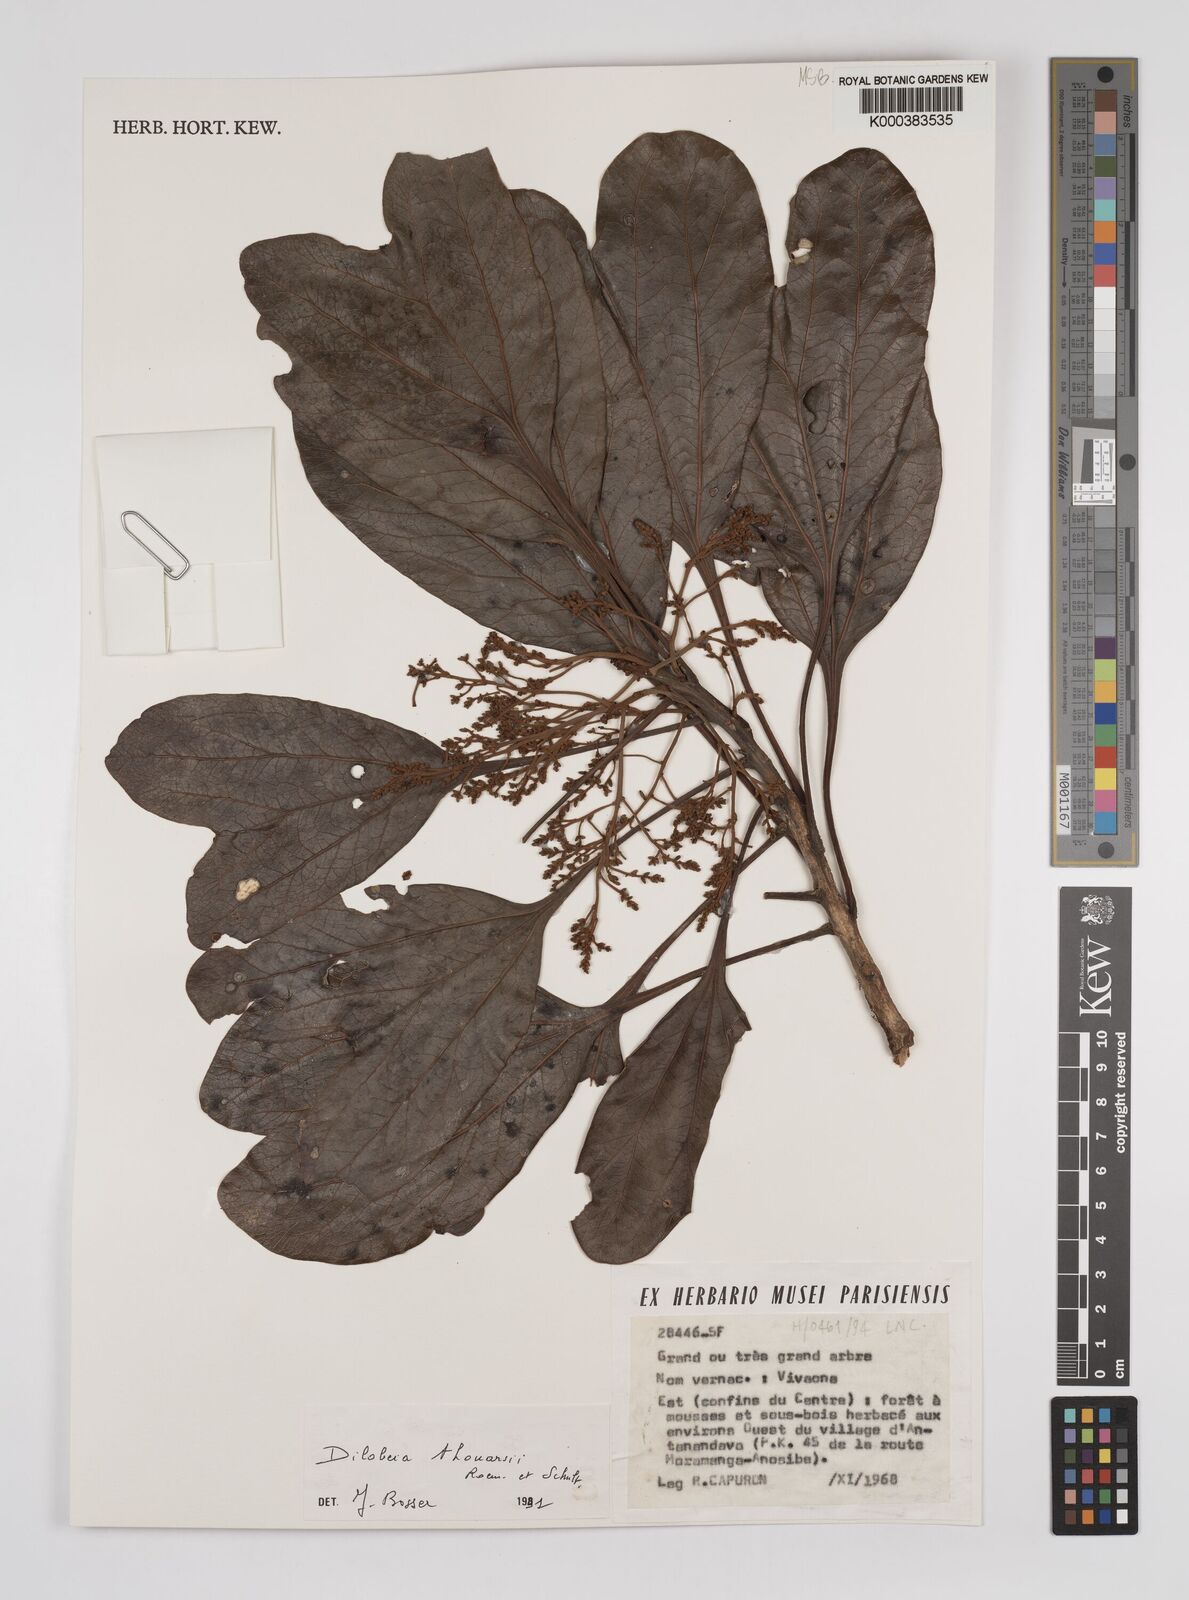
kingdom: Plantae
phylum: Tracheophyta
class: Magnoliopsida
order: Proteales
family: Proteaceae
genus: Dilobeia
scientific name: Dilobeia thouarsii
